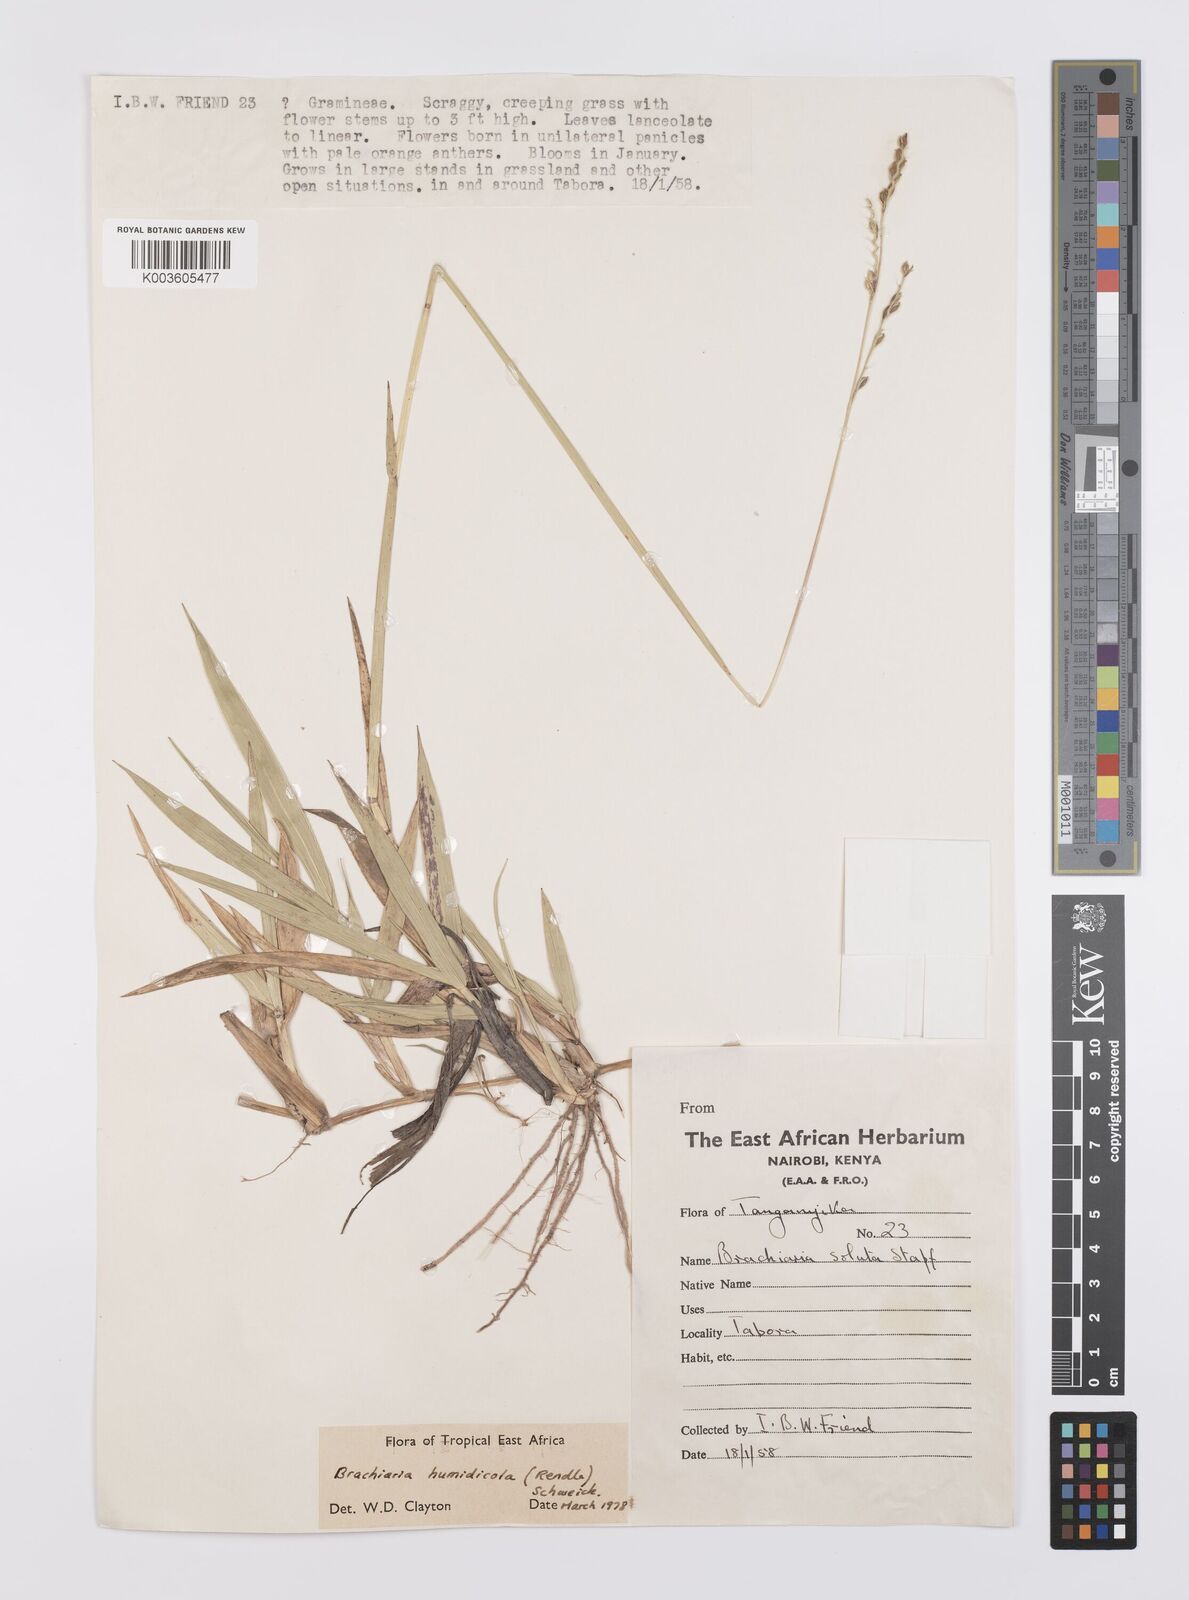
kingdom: Plantae
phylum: Tracheophyta
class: Liliopsida
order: Poales
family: Poaceae
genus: Urochloa
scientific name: Urochloa dictyoneura
